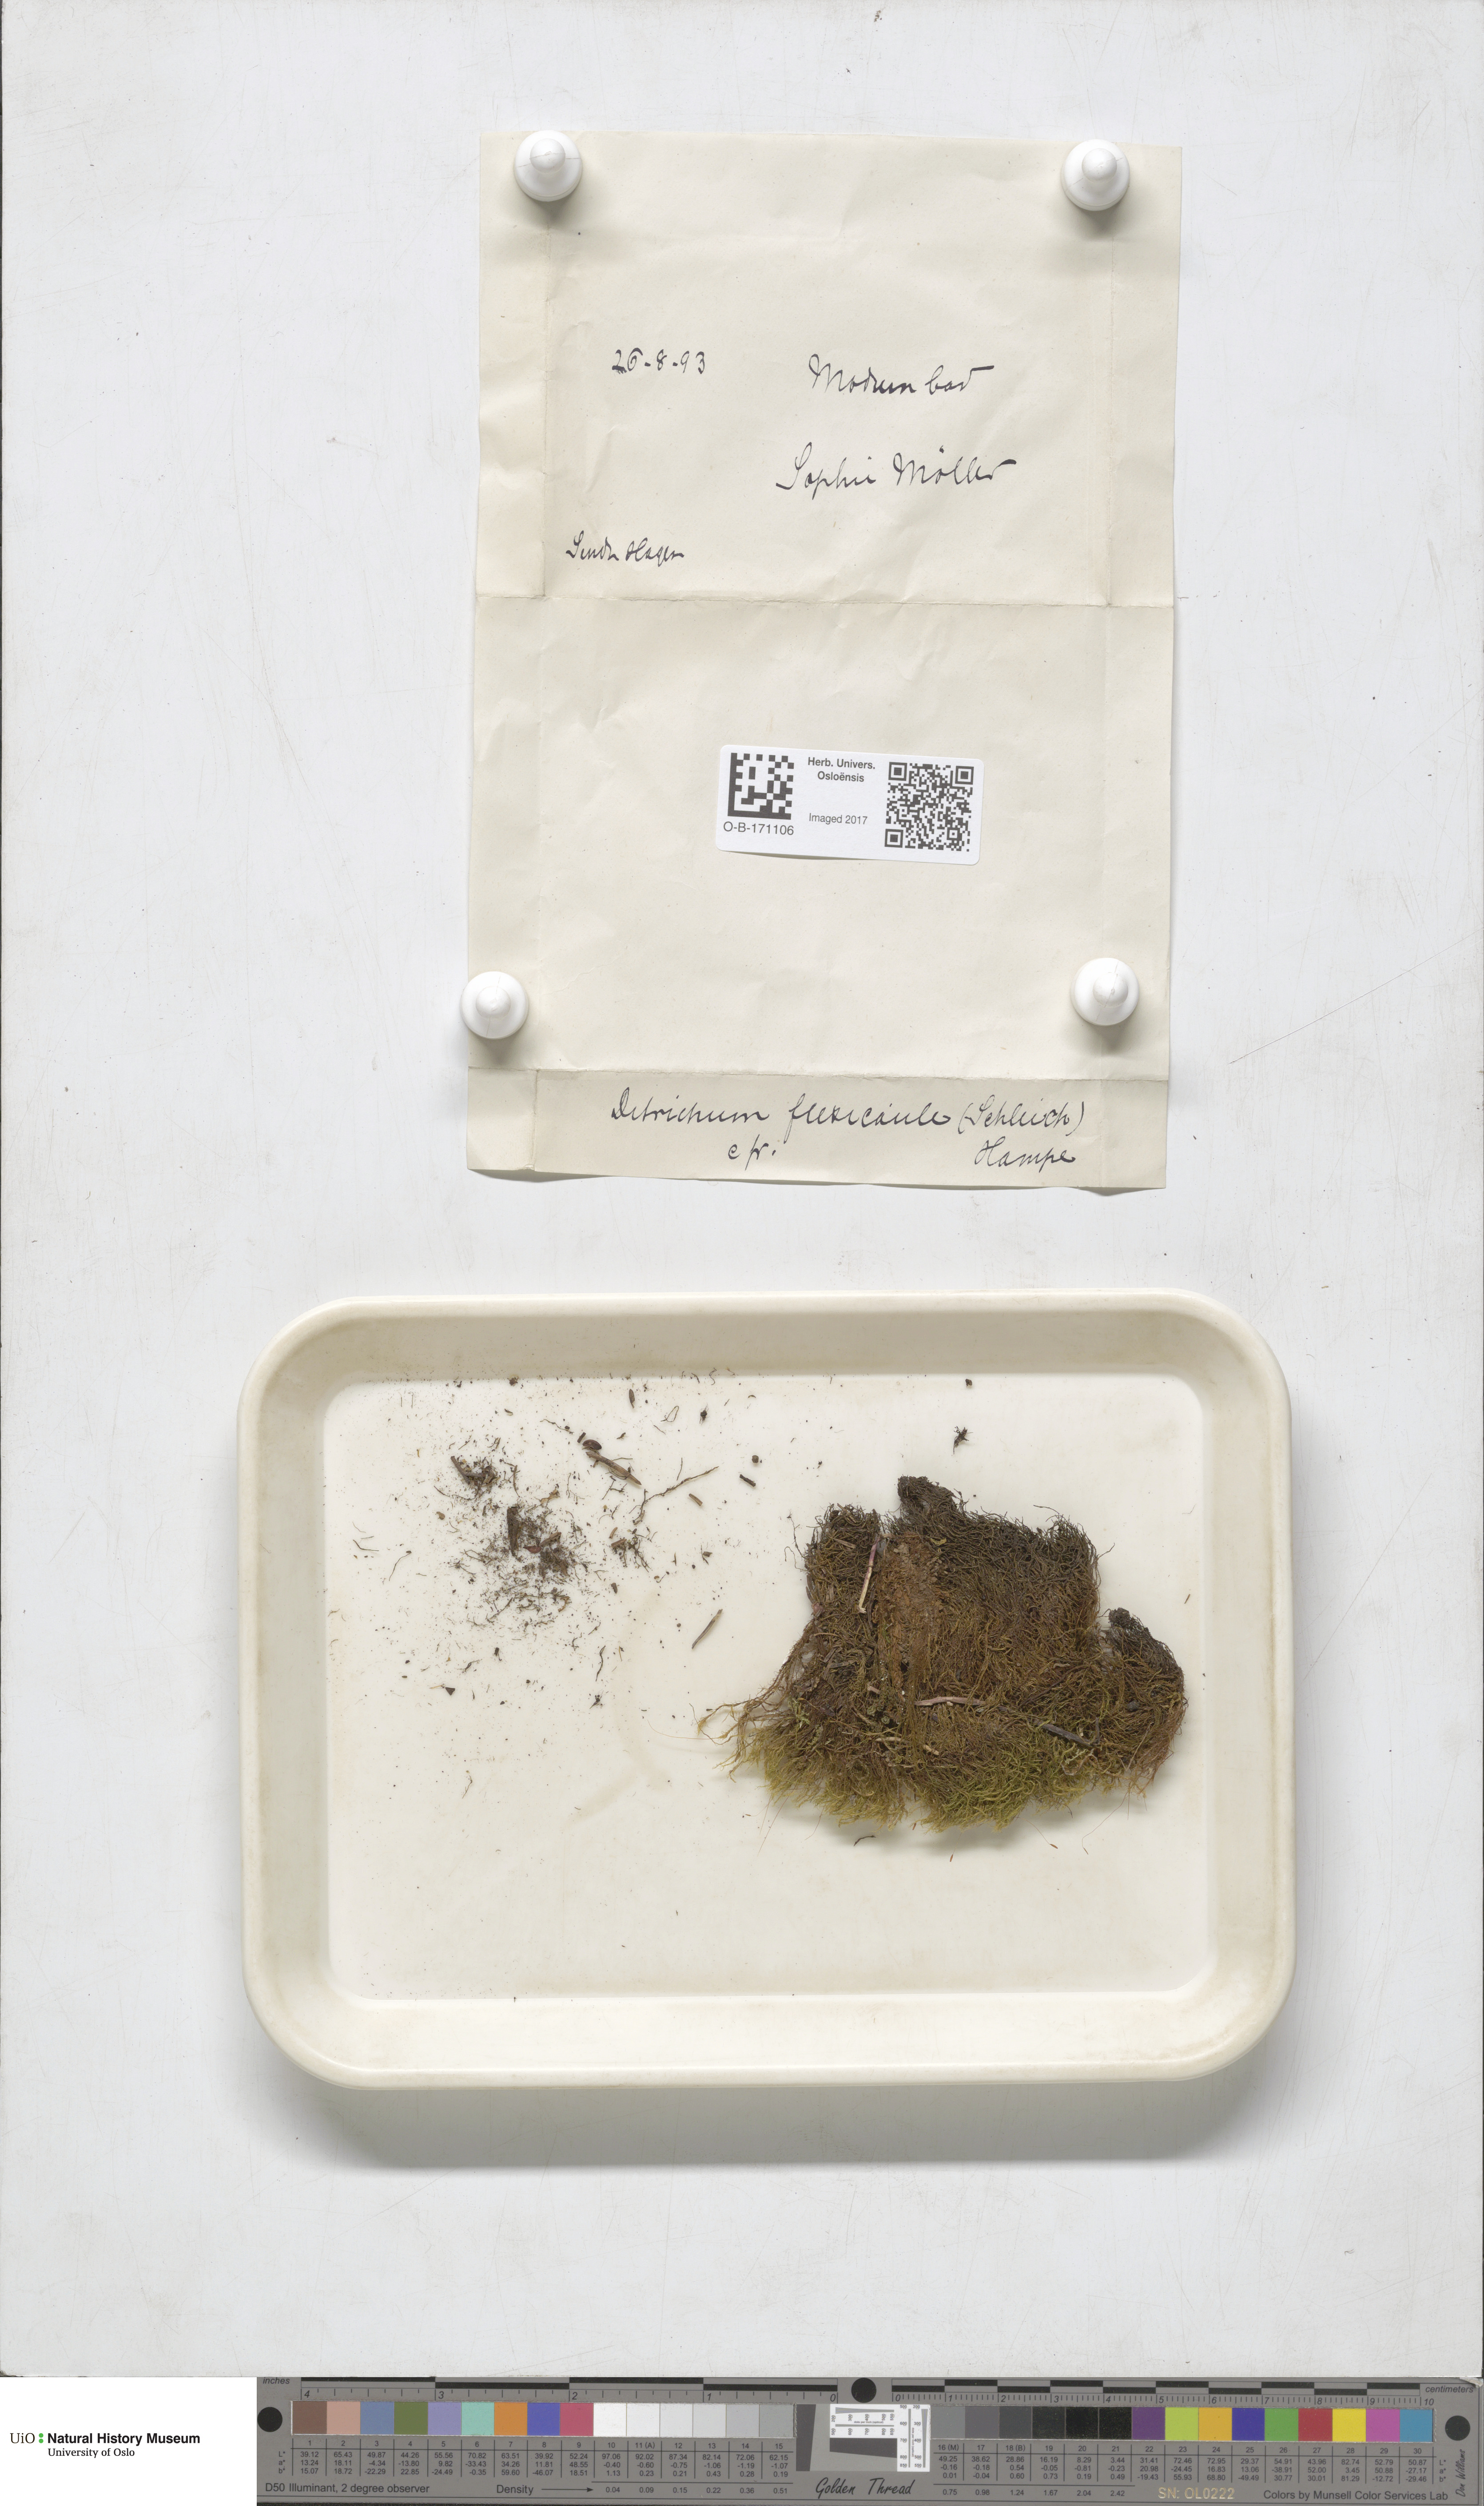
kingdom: Plantae
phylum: Bryophyta
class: Bryopsida
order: Scouleriales
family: Flexitrichaceae
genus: Flexitrichum
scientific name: Flexitrichum flexicaule
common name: Bendy ditrichum
